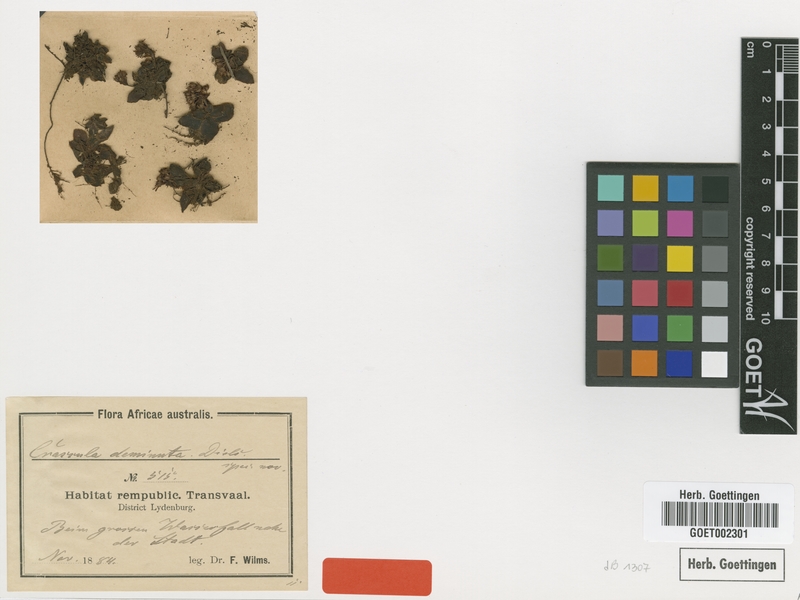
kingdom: Plantae
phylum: Tracheophyta
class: Magnoliopsida
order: Saxifragales
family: Crassulaceae
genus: Crassula
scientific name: Crassula setulosa
